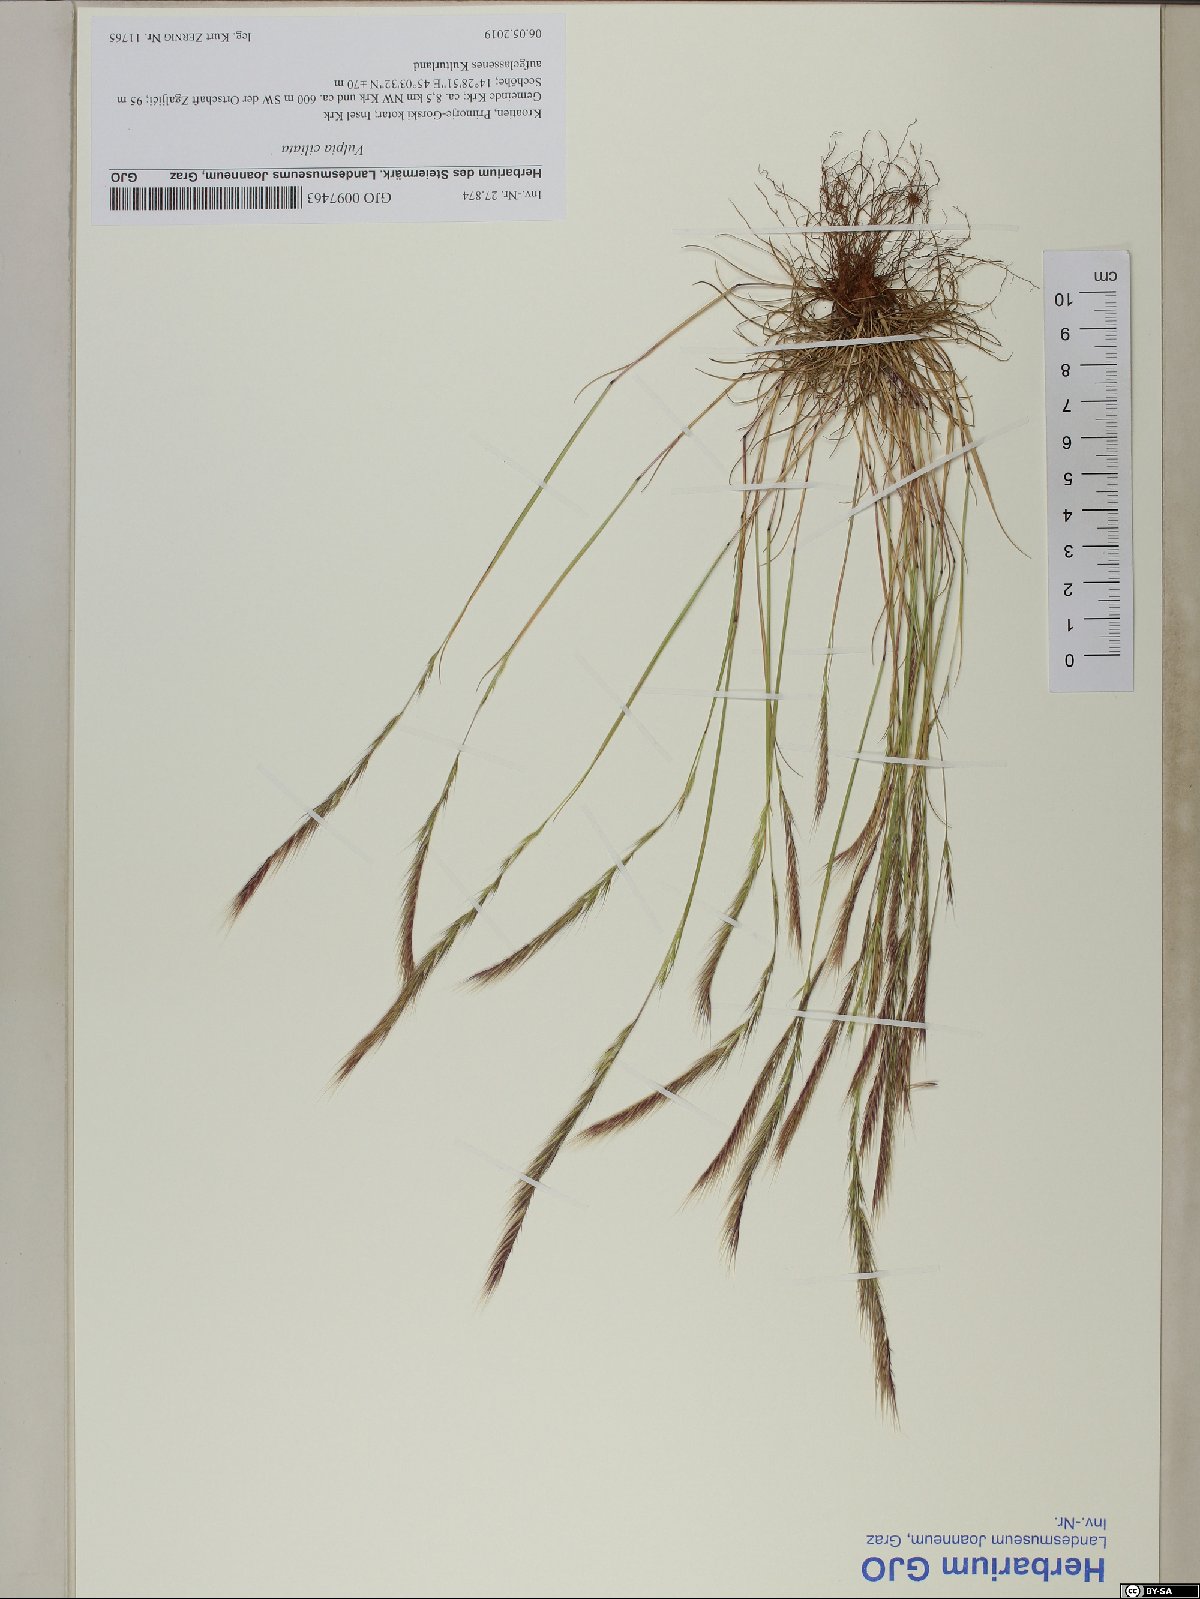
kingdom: Plantae
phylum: Tracheophyta
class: Liliopsida
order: Poales
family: Poaceae
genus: Festuca
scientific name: Festuca ambigua
